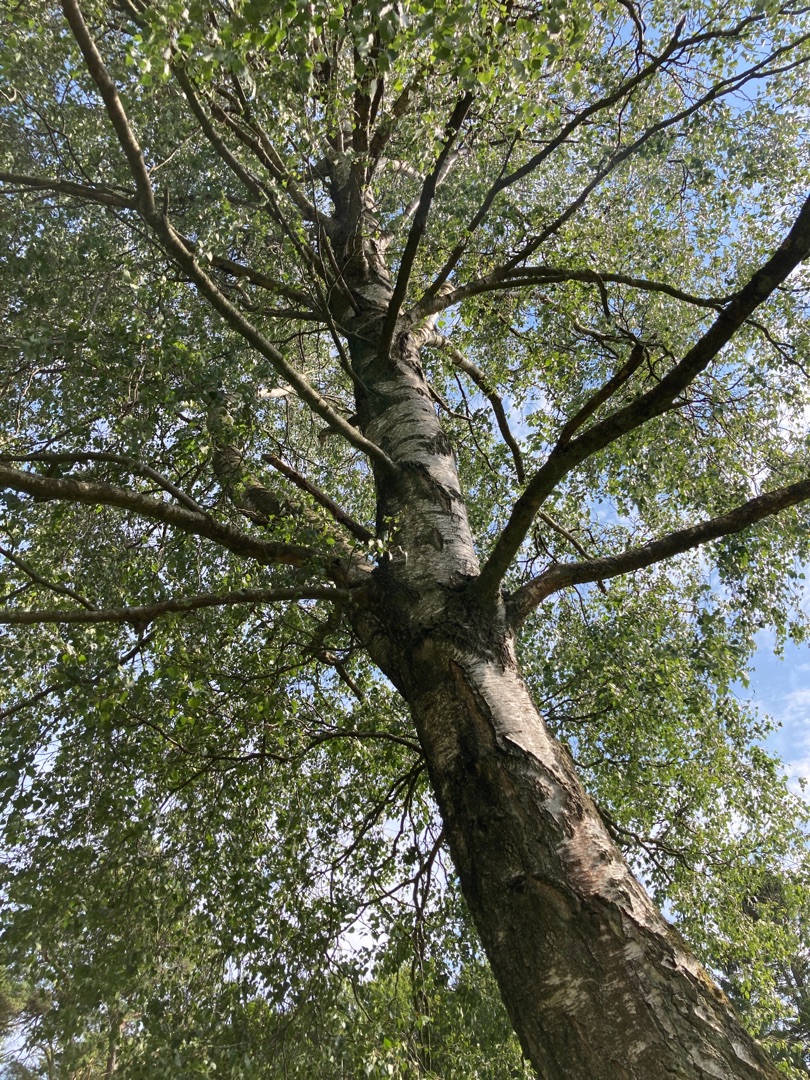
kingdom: Plantae
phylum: Tracheophyta
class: Magnoliopsida
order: Fagales
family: Betulaceae
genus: Betula
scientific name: Betula pendula
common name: Vorte-birk
